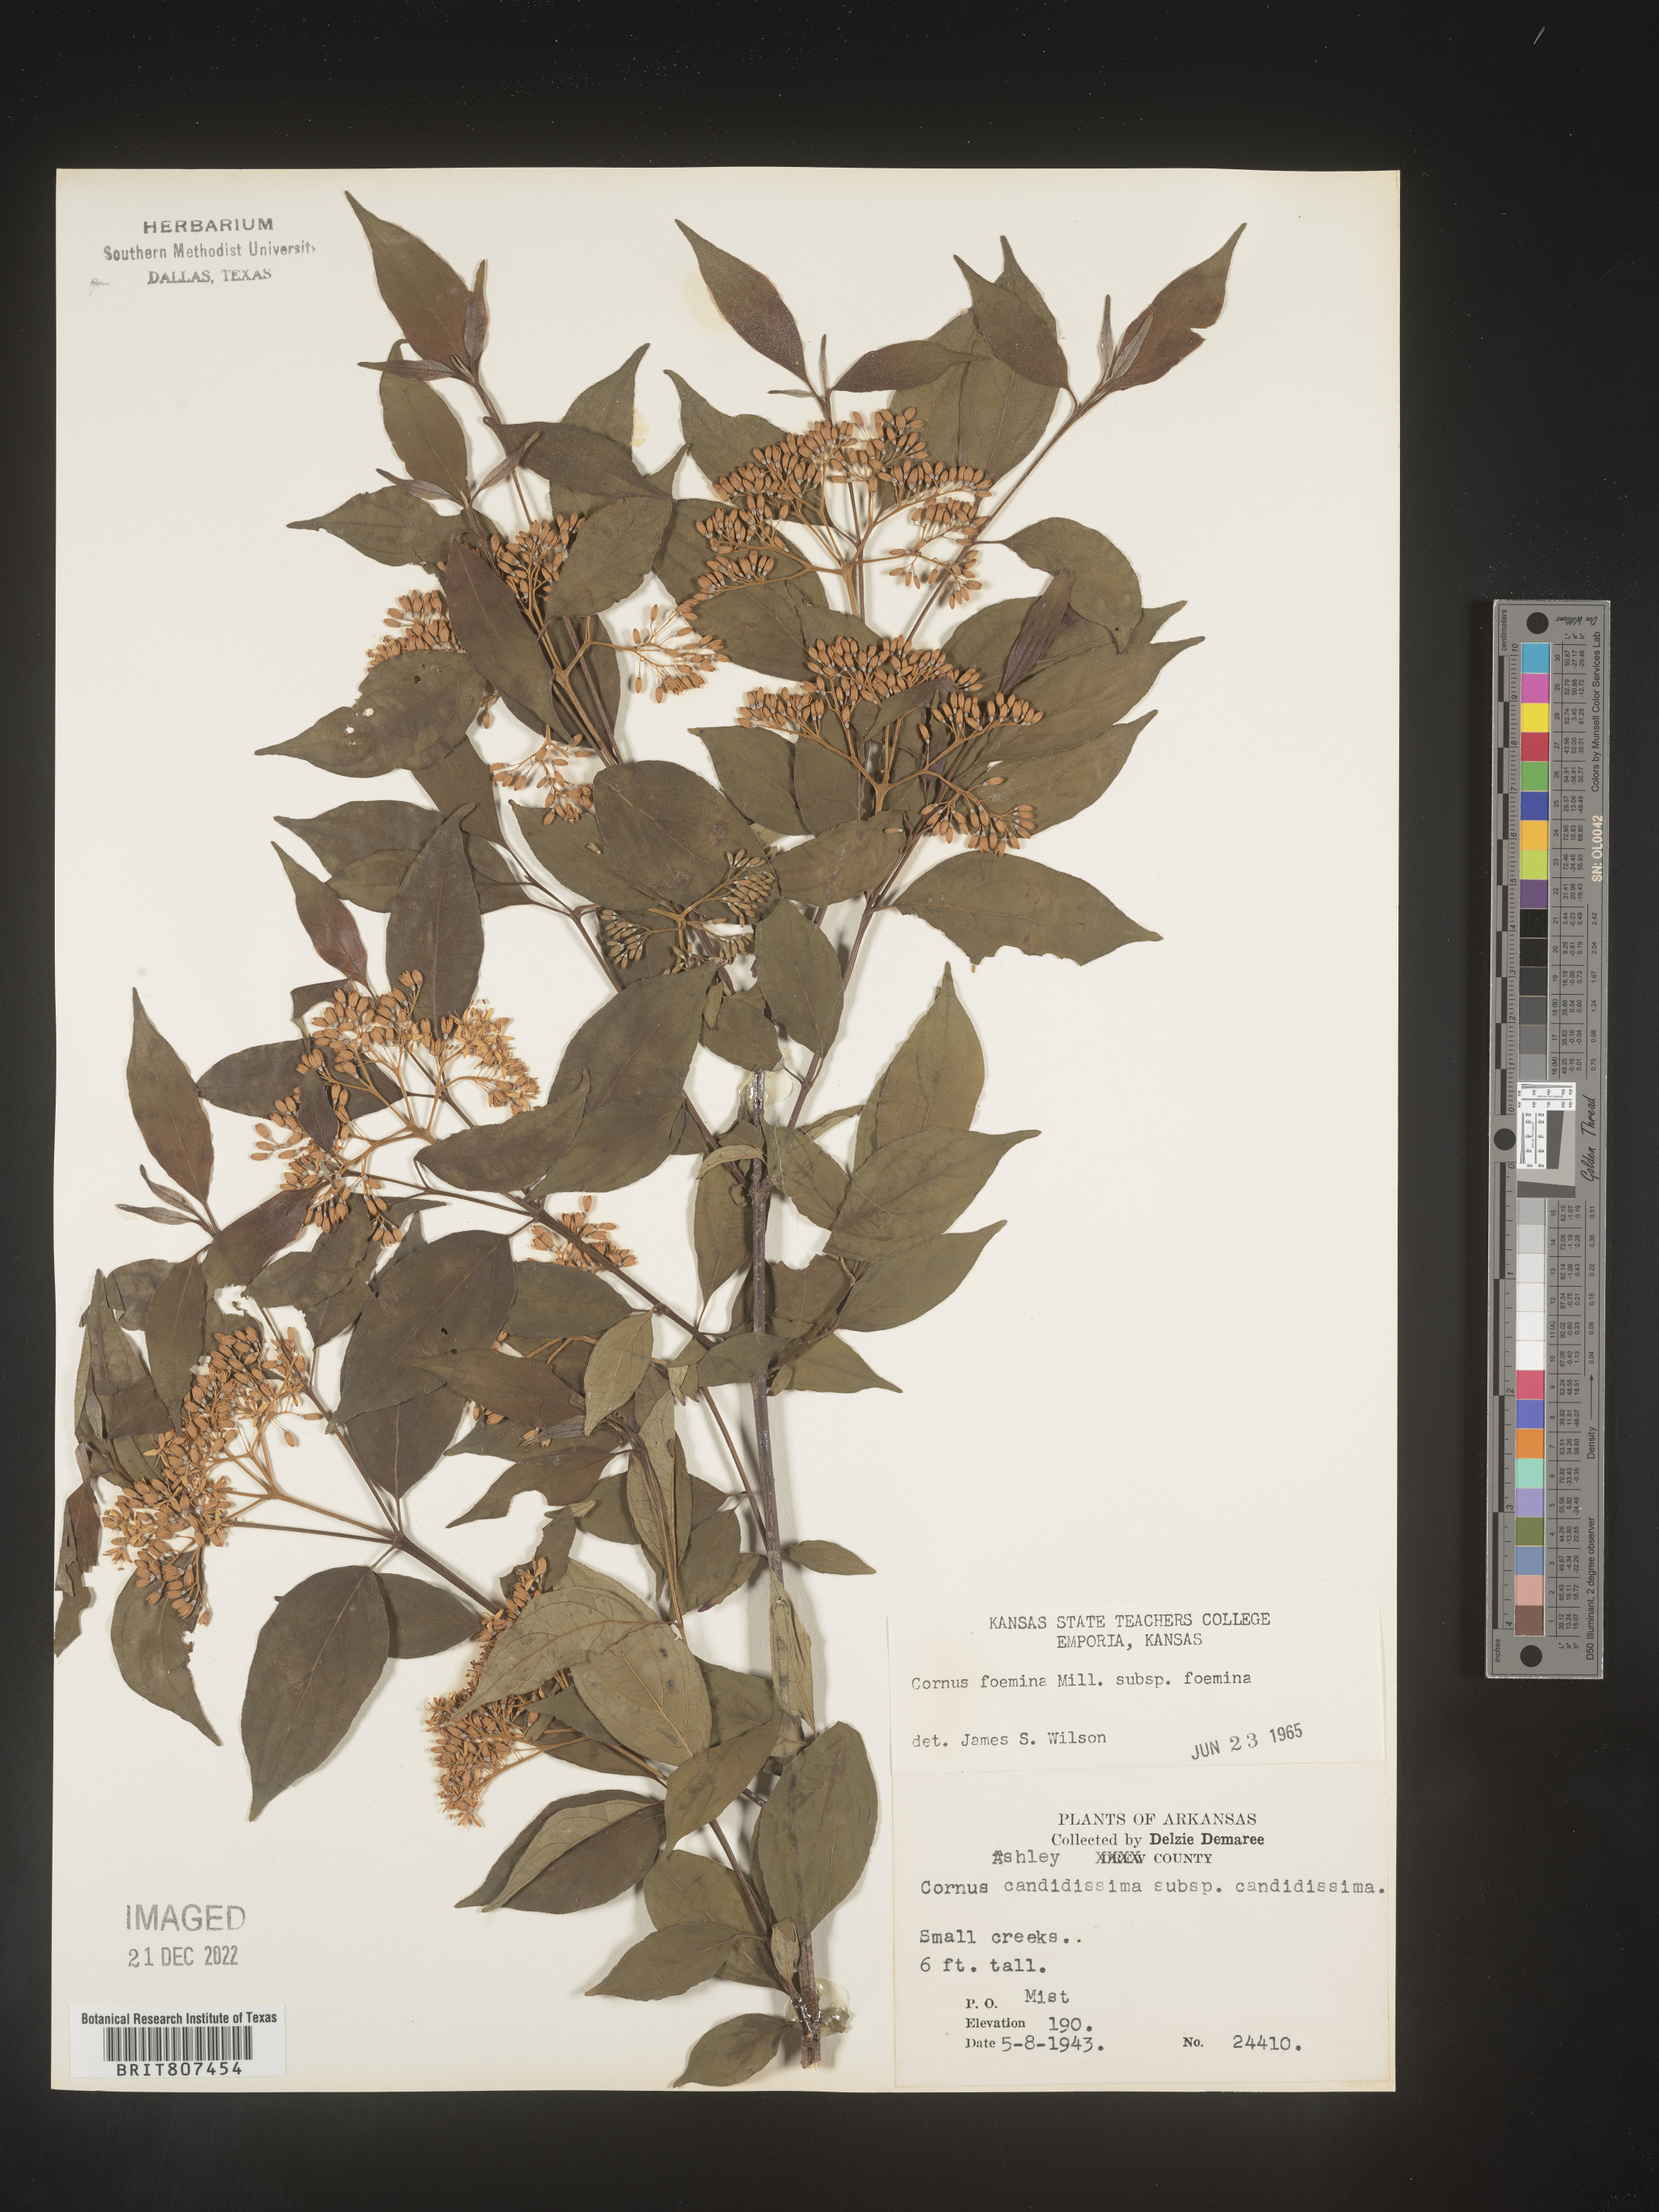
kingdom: Plantae
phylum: Tracheophyta
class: Magnoliopsida
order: Cornales
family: Cornaceae
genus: Cornus
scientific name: Cornus foemina
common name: Swamp dogwood
